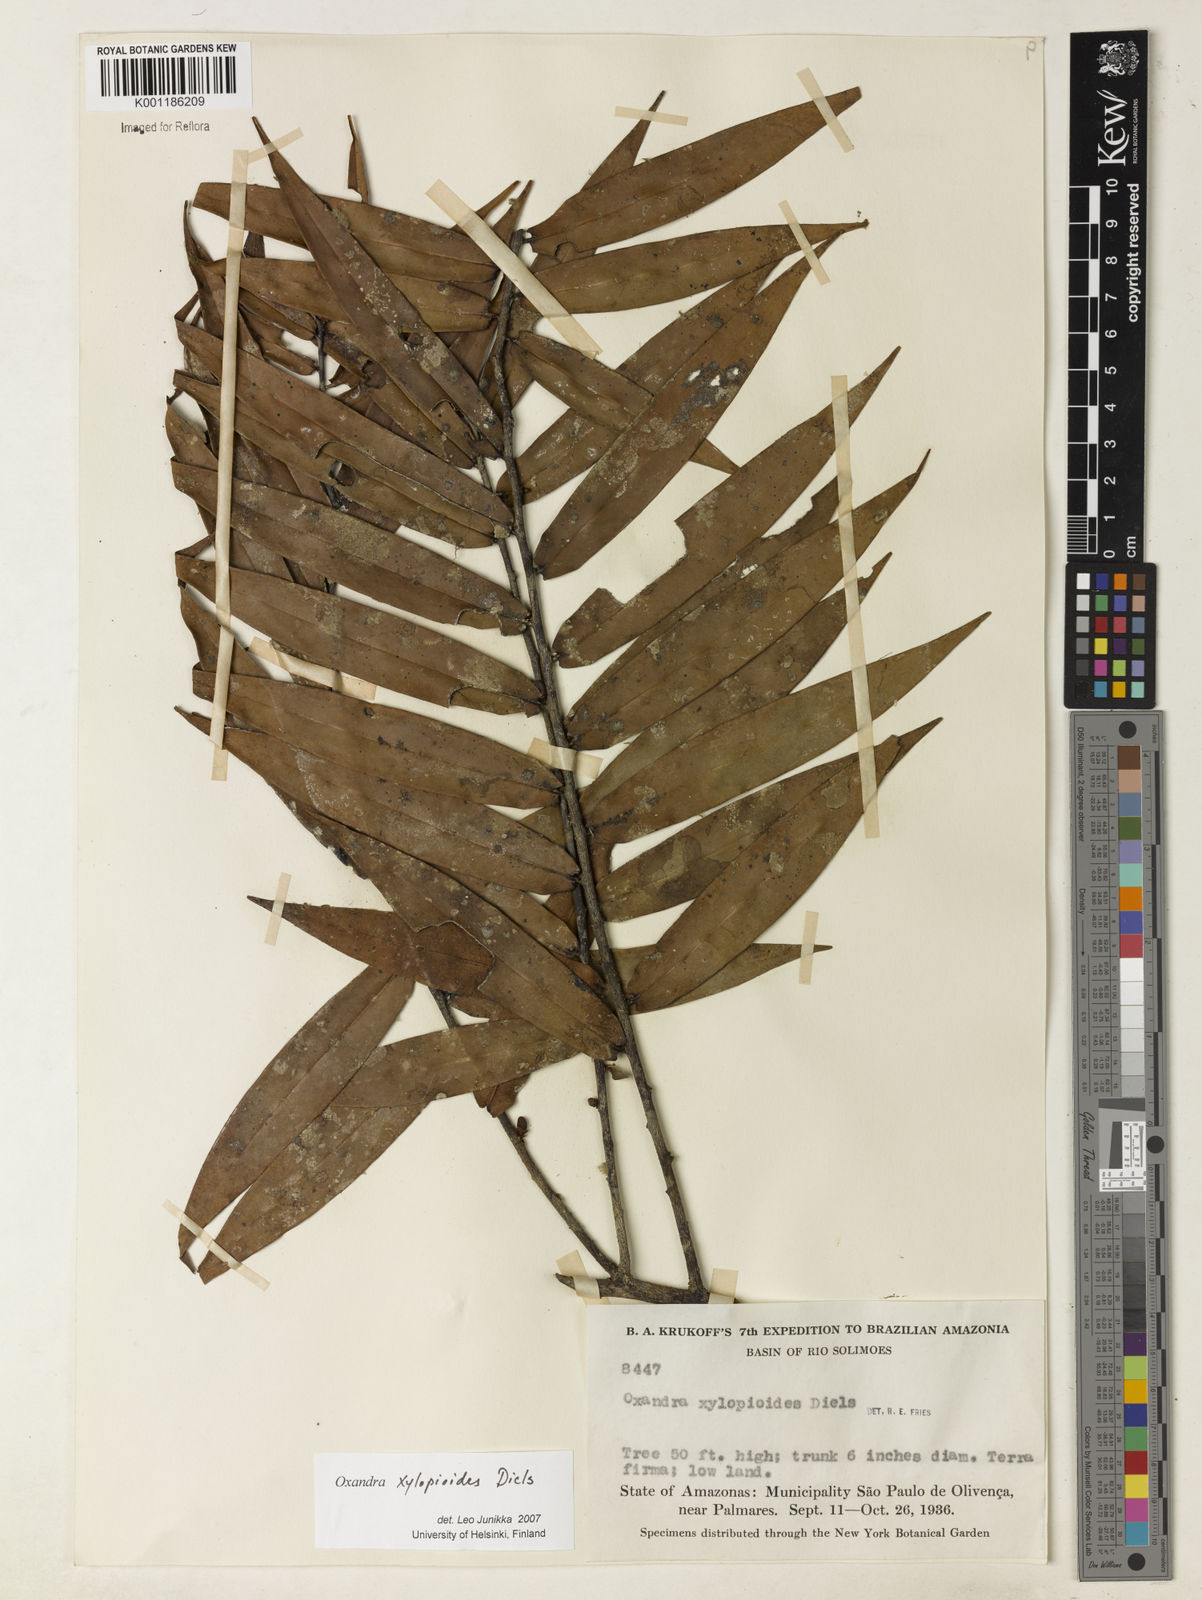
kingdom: Plantae
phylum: Tracheophyta
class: Magnoliopsida
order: Magnoliales
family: Annonaceae
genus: Oxandra
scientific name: Oxandra xylopioides
